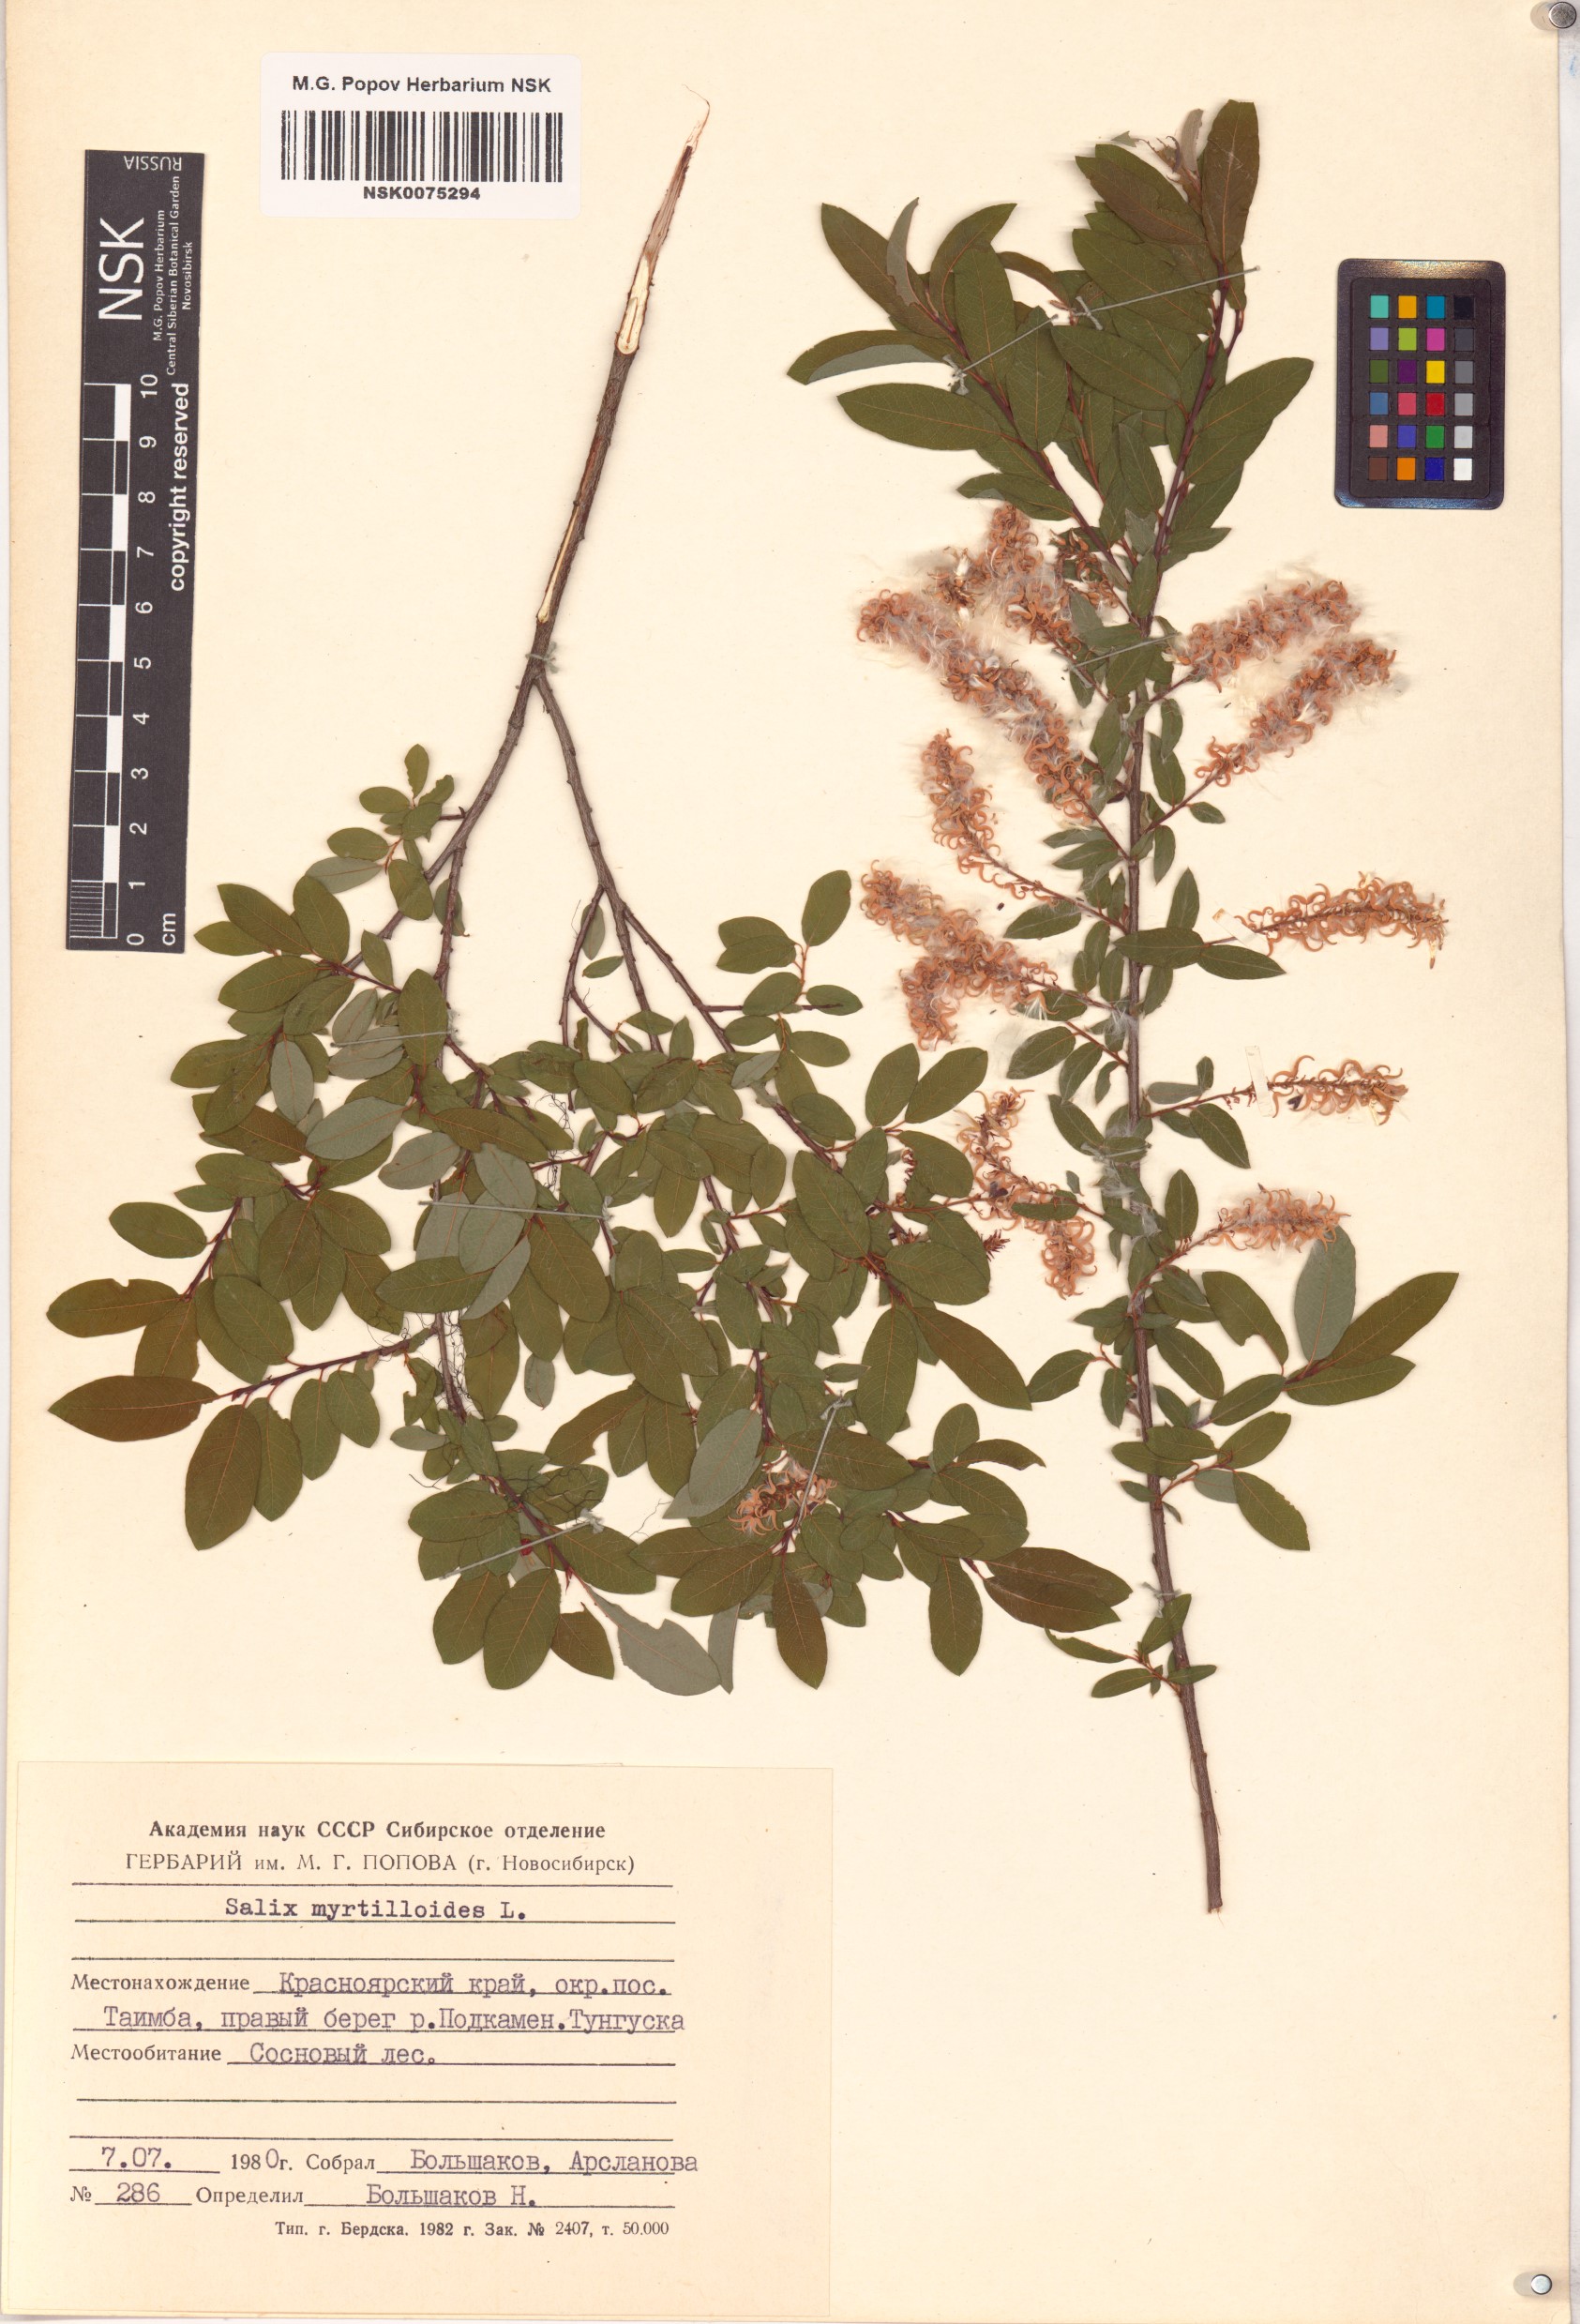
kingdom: Plantae
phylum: Tracheophyta
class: Magnoliopsida
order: Malpighiales
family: Salicaceae
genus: Salix
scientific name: Salix myrtilloides
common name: Myrtle-leaved willow
